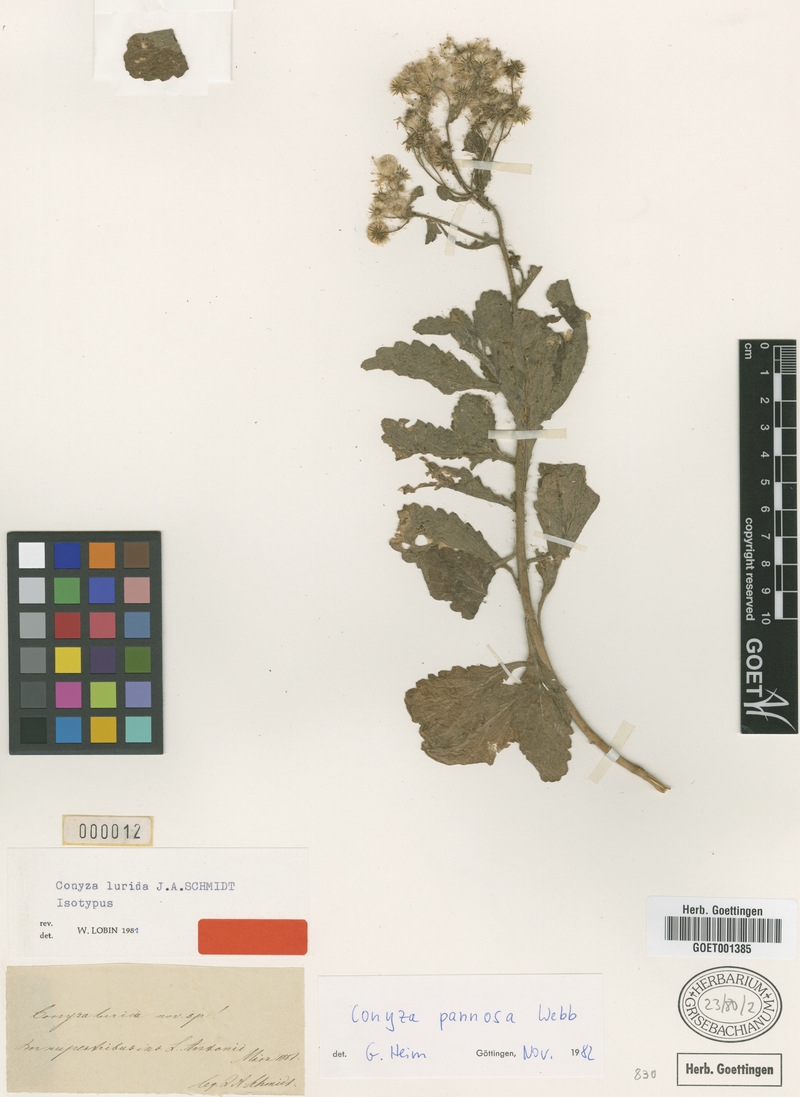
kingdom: Plantae
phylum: Tracheophyta
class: Magnoliopsida
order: Asterales
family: Asteraceae
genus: Conyza
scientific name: Conyza pannosa
